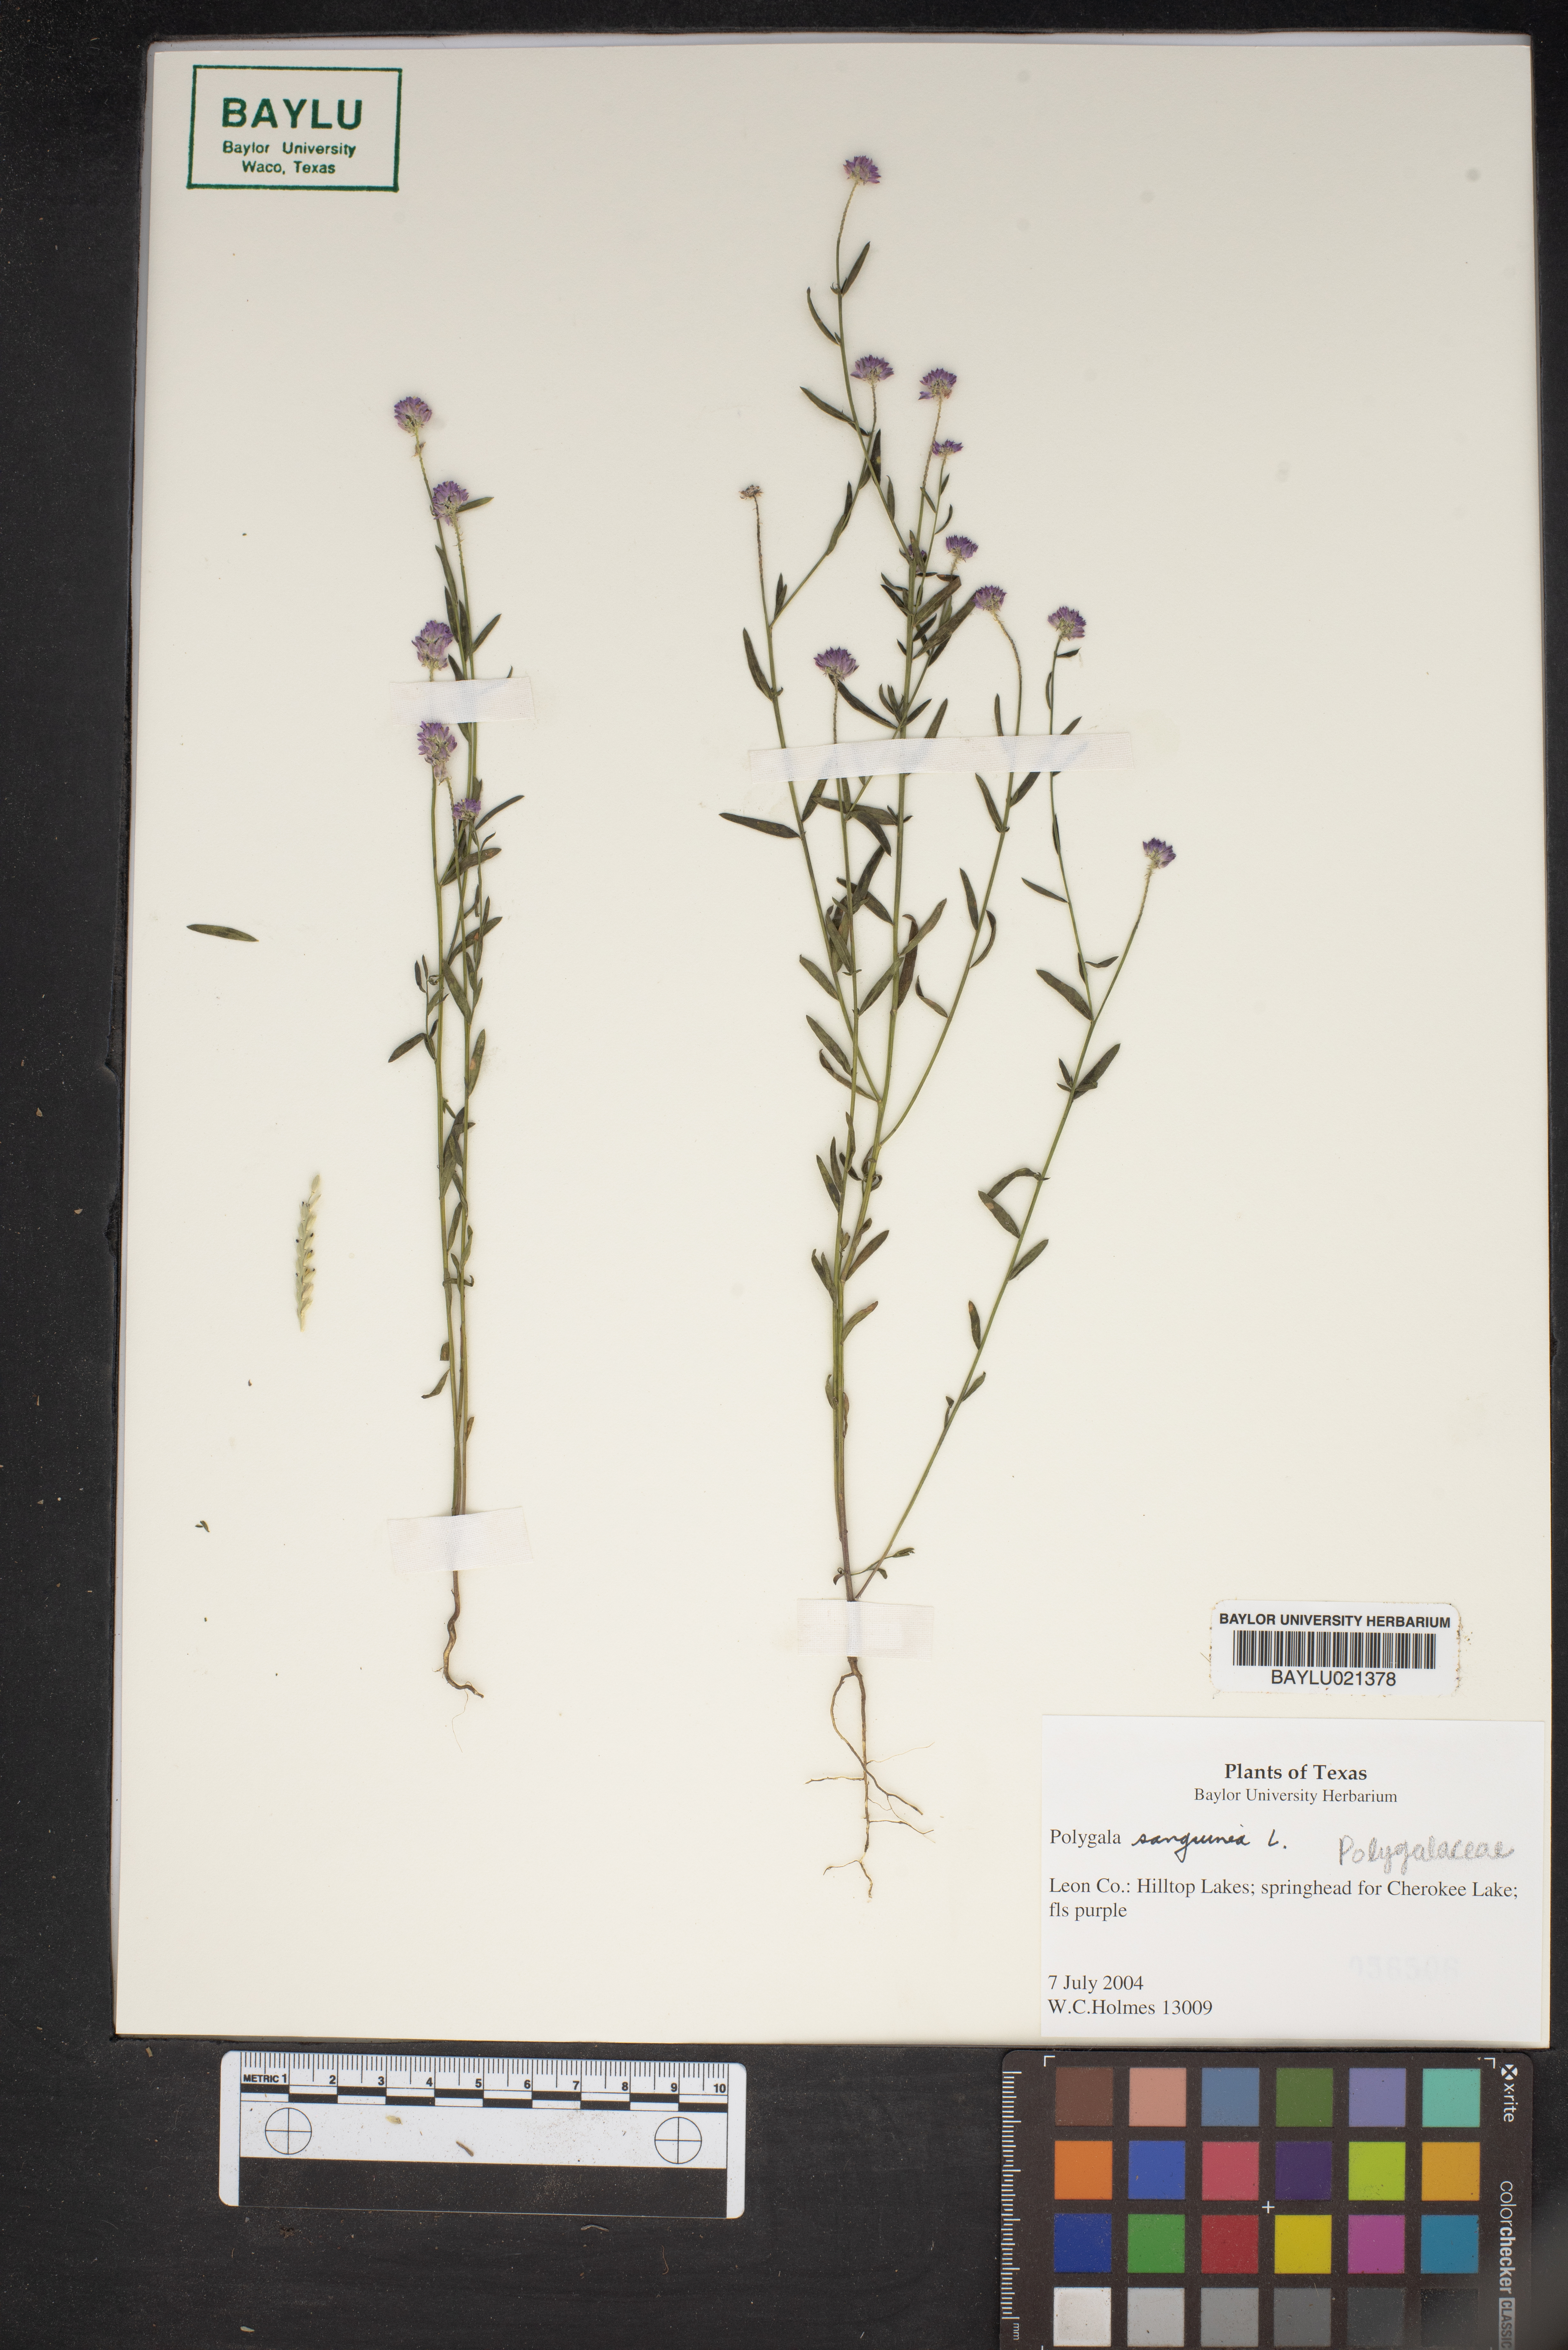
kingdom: Plantae
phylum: Tracheophyta
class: Magnoliopsida
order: Fabales
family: Polygalaceae
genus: Polygala
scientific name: Polygala sanguinea
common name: Blood milkwort
